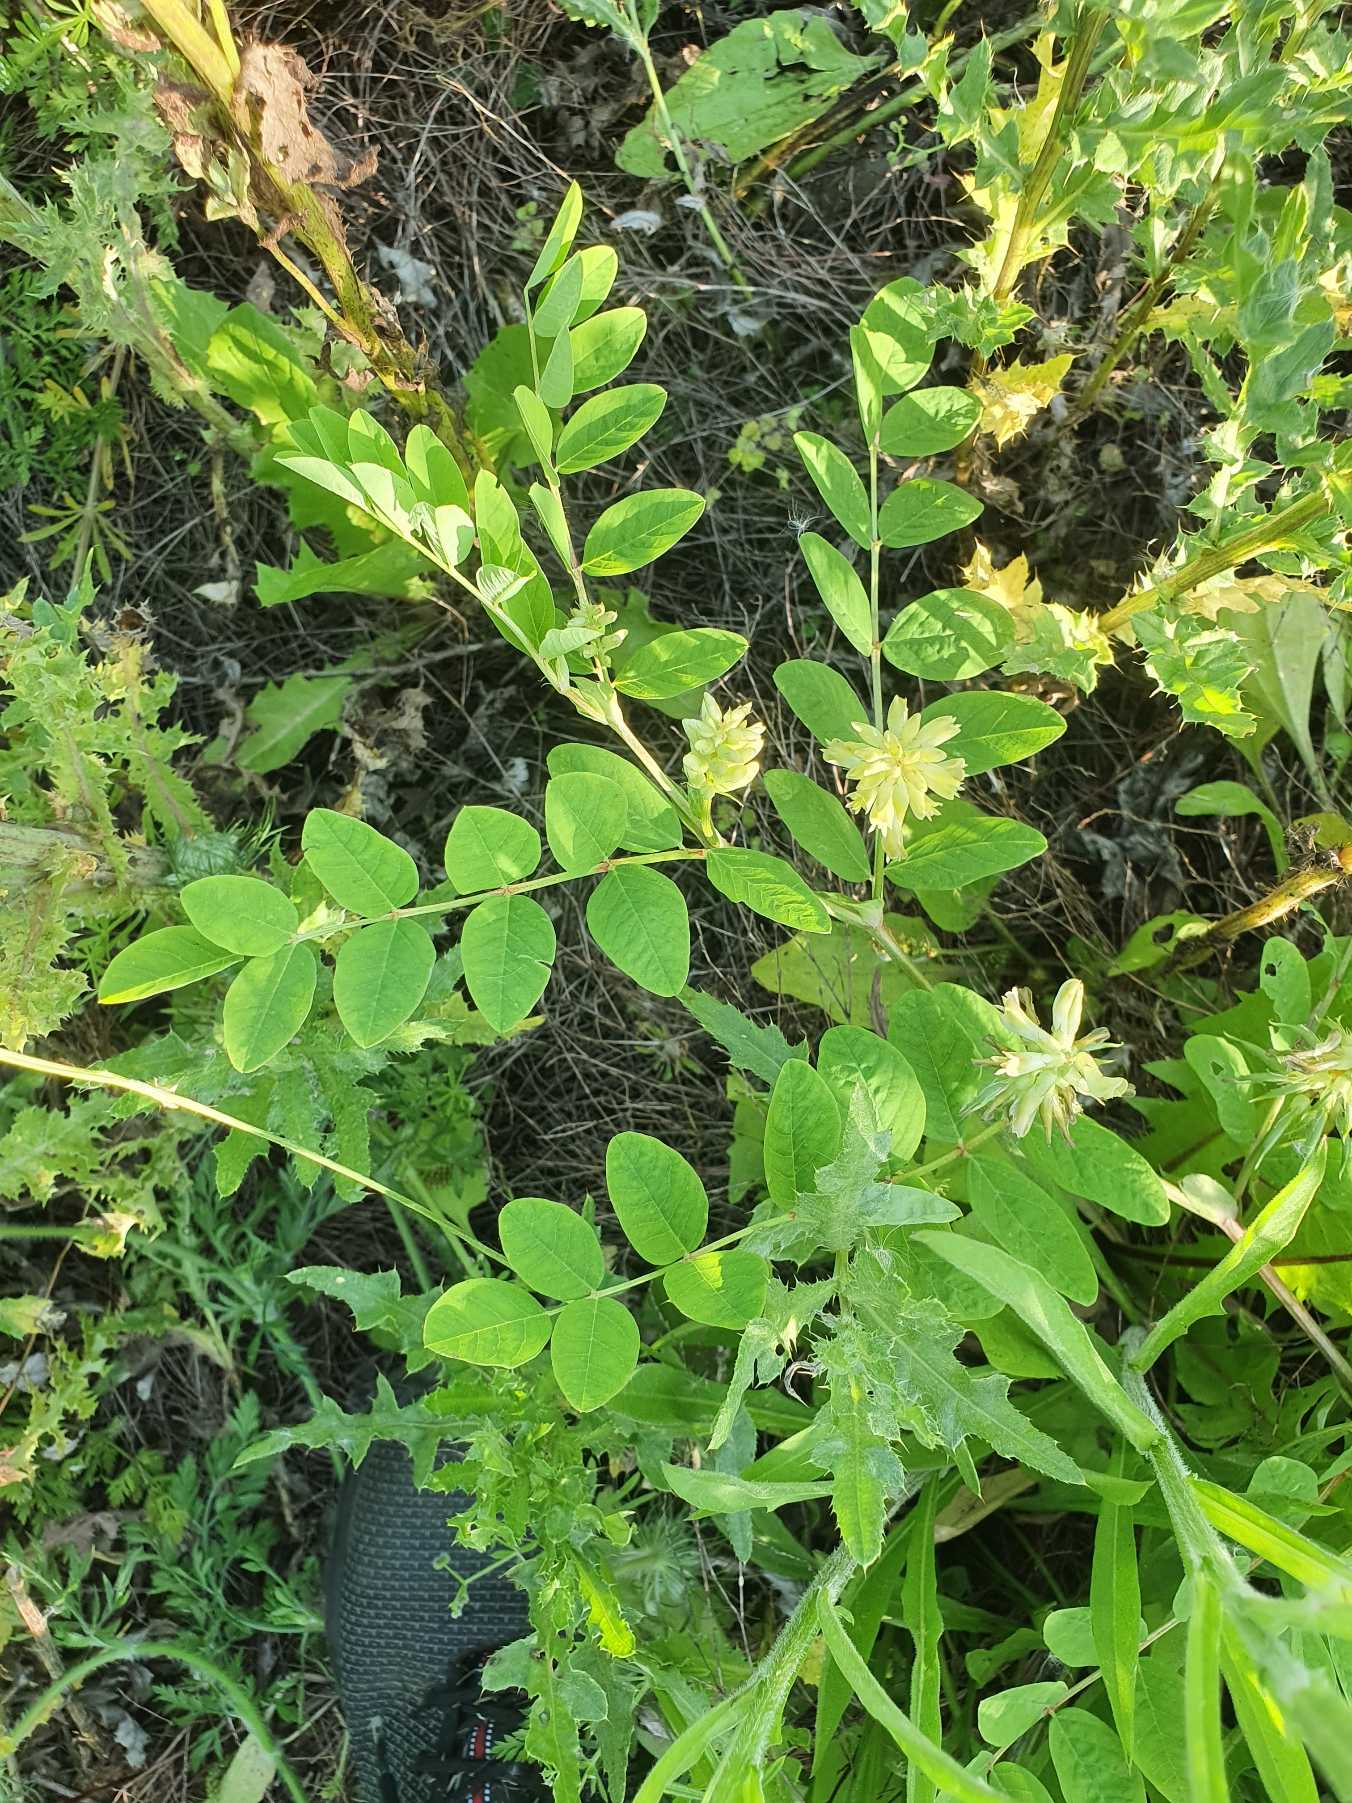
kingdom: Plantae
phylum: Tracheophyta
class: Magnoliopsida
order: Fabales
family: Fabaceae
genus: Astragalus
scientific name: Astragalus glycyphyllos
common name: Sød astragel
